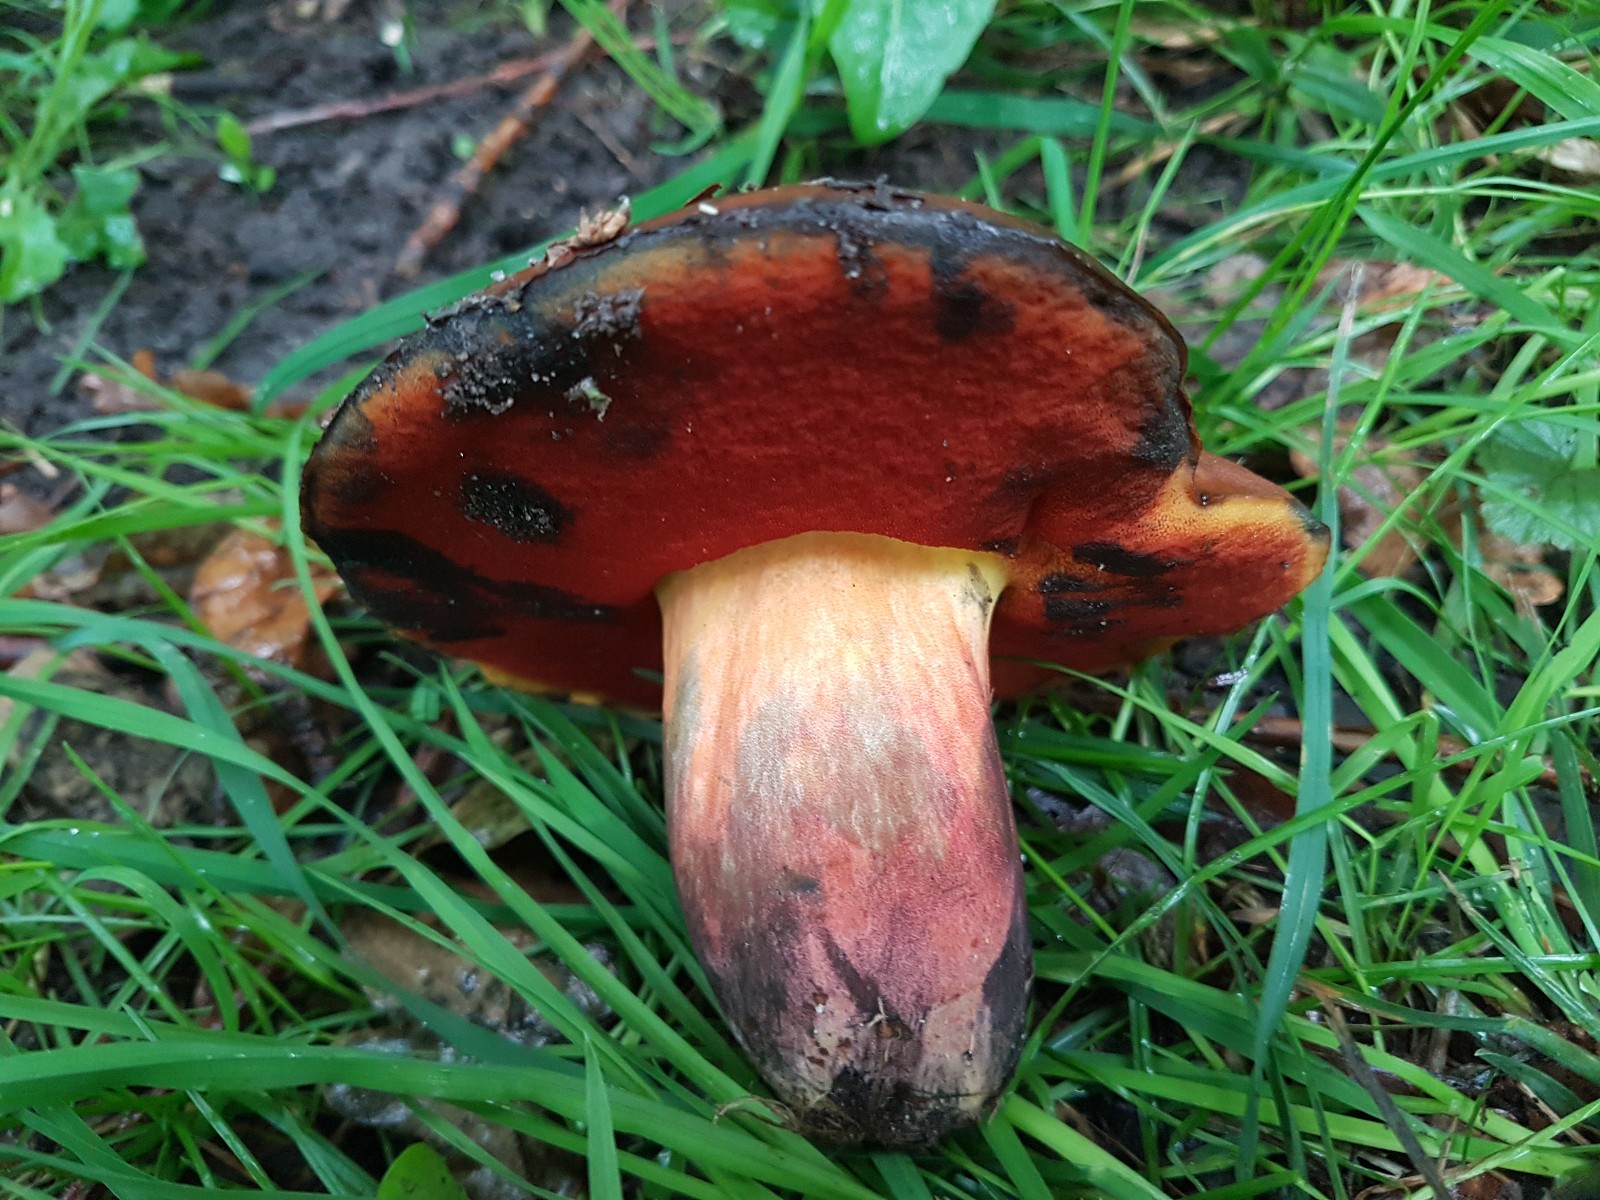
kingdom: Fungi
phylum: Basidiomycota
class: Agaricomycetes
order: Boletales
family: Boletaceae
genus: Neoboletus
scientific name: Neoboletus xanthopus
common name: finprikket indigorørhat
